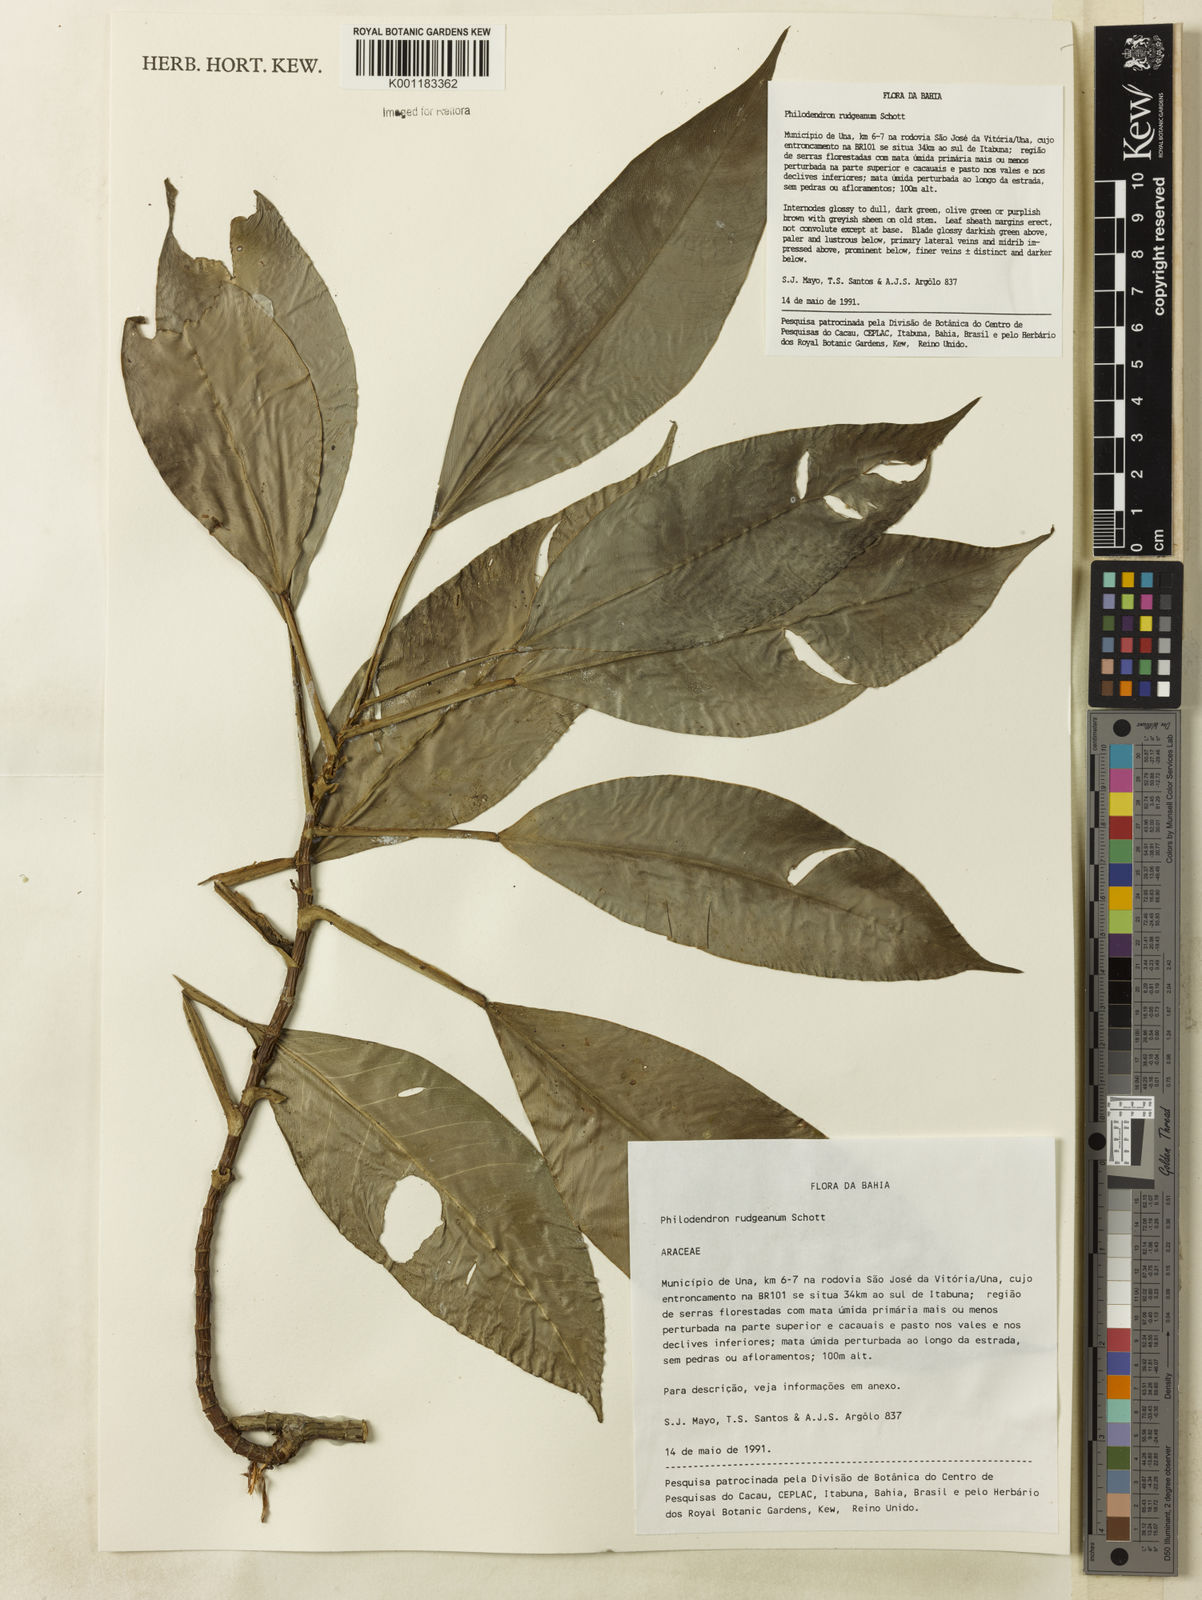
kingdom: Plantae
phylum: Tracheophyta
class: Liliopsida
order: Alismatales
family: Araceae
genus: Philodendron
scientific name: Philodendron rudgeanum
